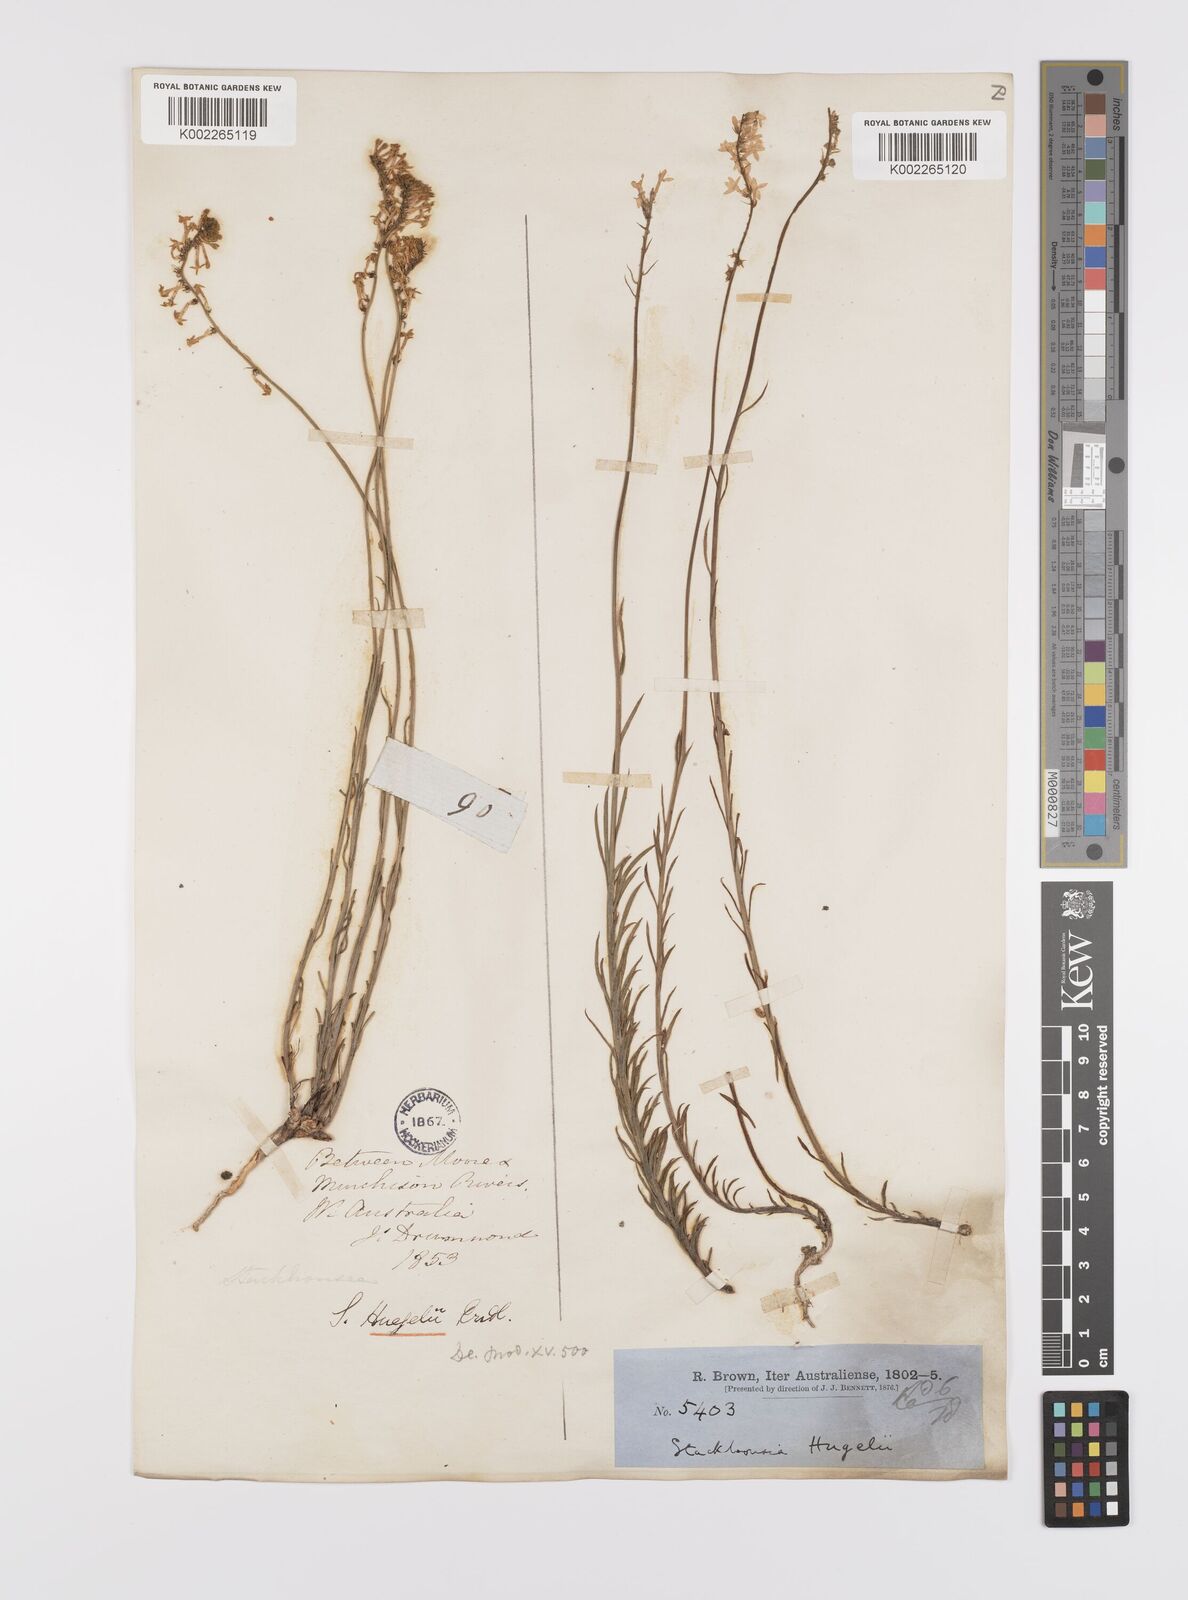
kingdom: Plantae
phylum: Tracheophyta
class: Magnoliopsida
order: Celastrales
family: Celastraceae
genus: Stackhousia
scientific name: Stackhousia monogyna
